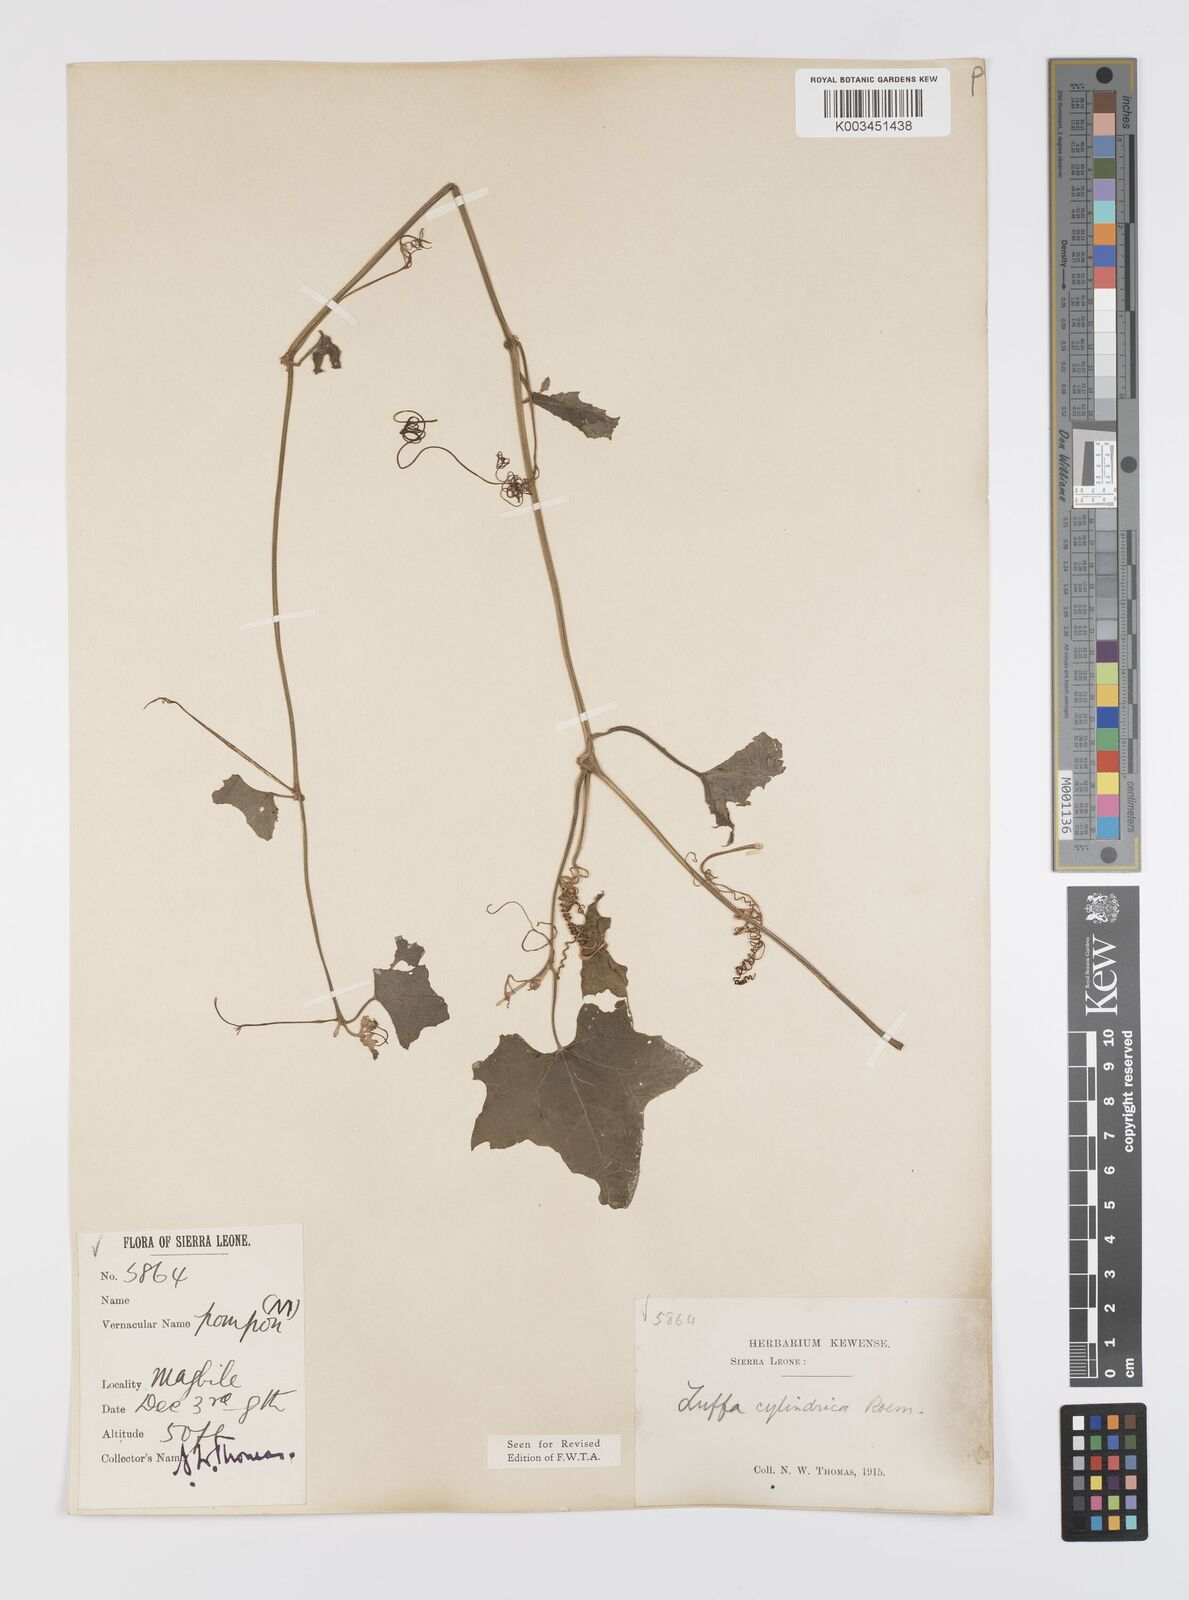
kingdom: Plantae
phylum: Tracheophyta
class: Magnoliopsida
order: Cucurbitales
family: Cucurbitaceae
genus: Luffa
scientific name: Luffa aegyptiaca
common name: Sponge gourd
